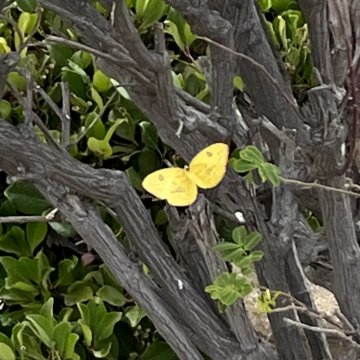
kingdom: Animalia
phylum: Arthropoda
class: Insecta
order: Lepidoptera
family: Pieridae
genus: Phoebis
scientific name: Phoebis sennae
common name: Cloudless Sulphur
